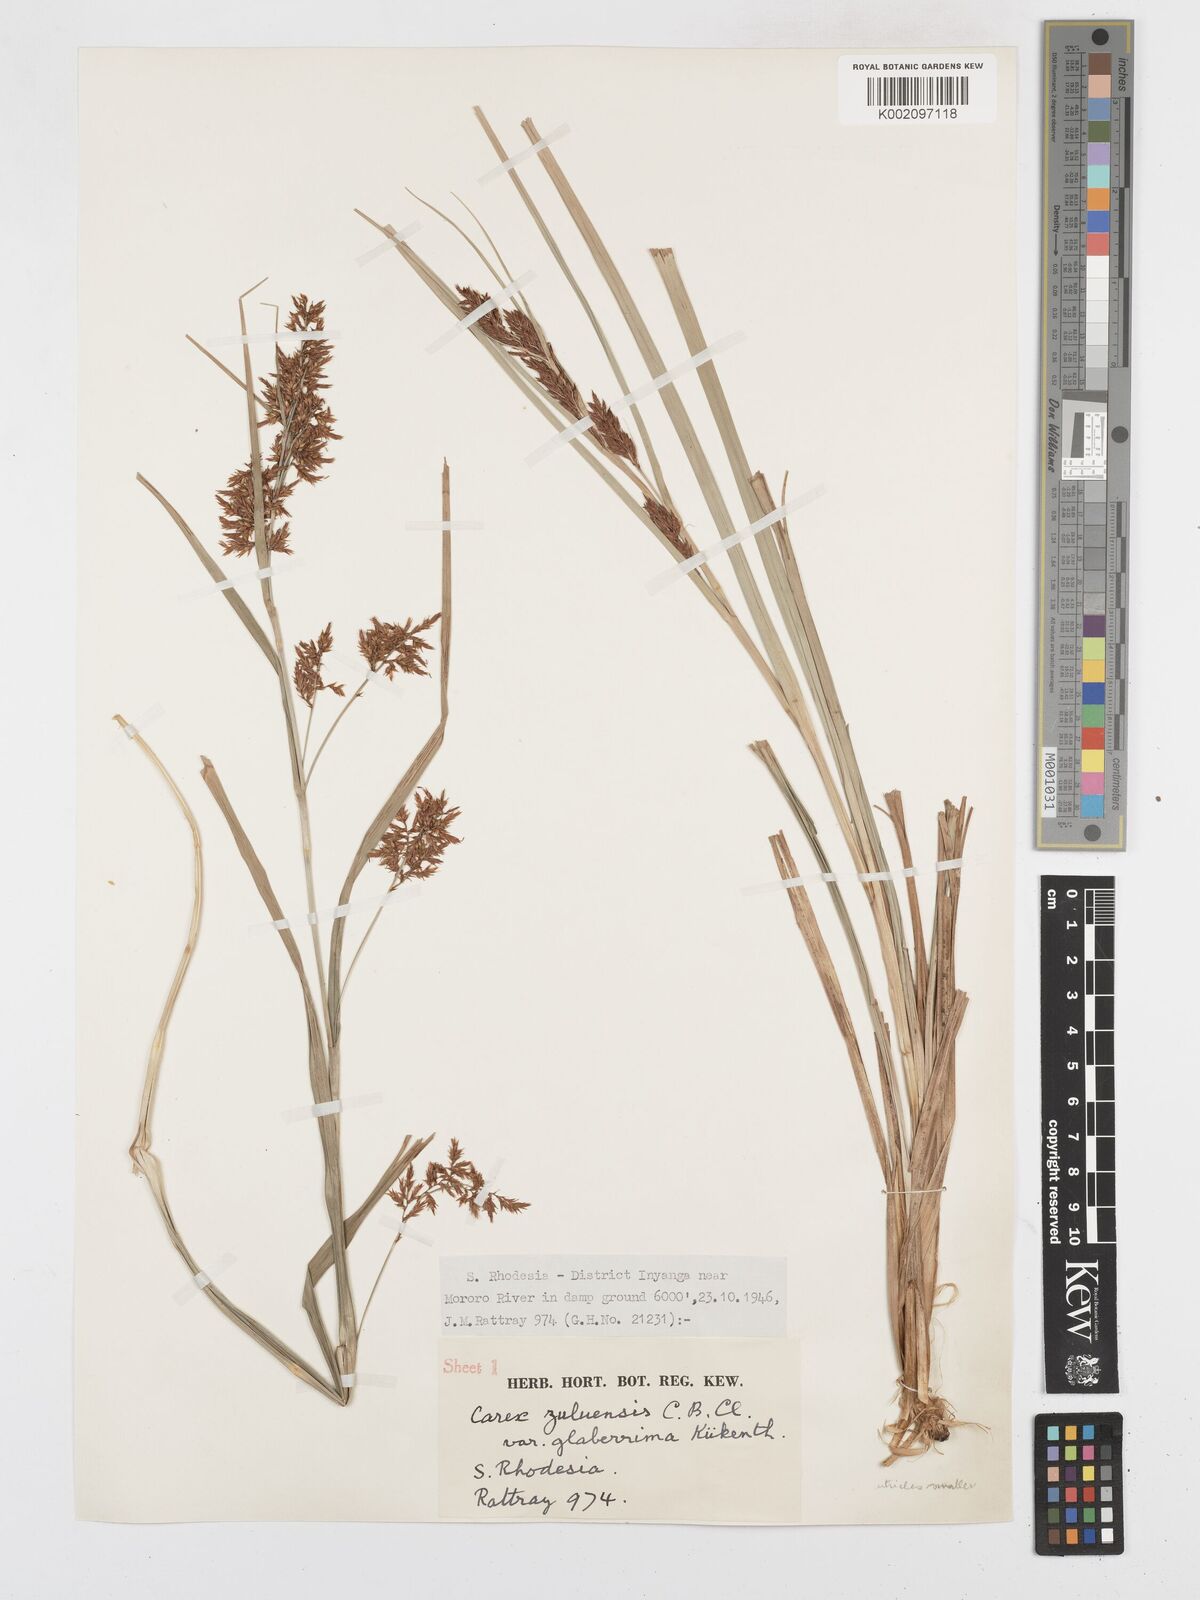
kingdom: Plantae
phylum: Tracheophyta
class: Liliopsida
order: Poales
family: Cyperaceae
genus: Carex
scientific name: Carex steudneri
